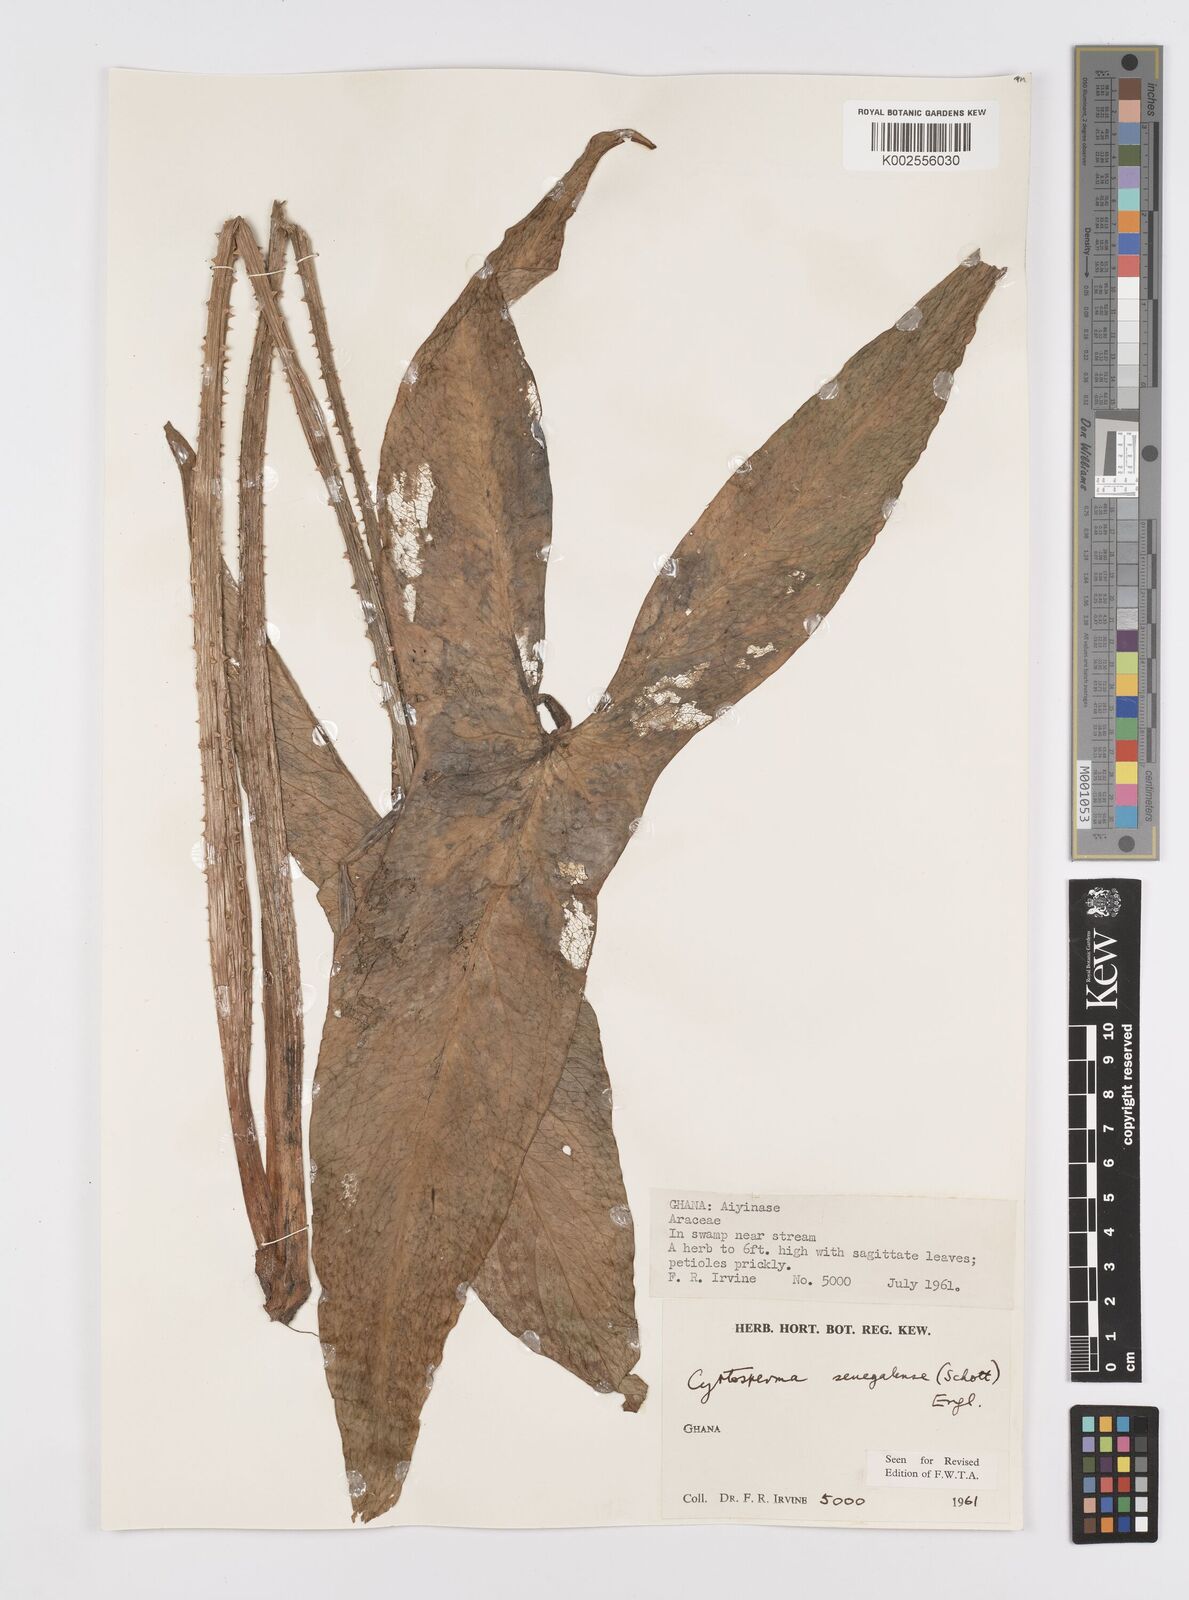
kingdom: Plantae
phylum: Tracheophyta
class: Liliopsida
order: Alismatales
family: Araceae
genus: Lasimorpha
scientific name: Lasimorpha senegalensis
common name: Swamp arum
